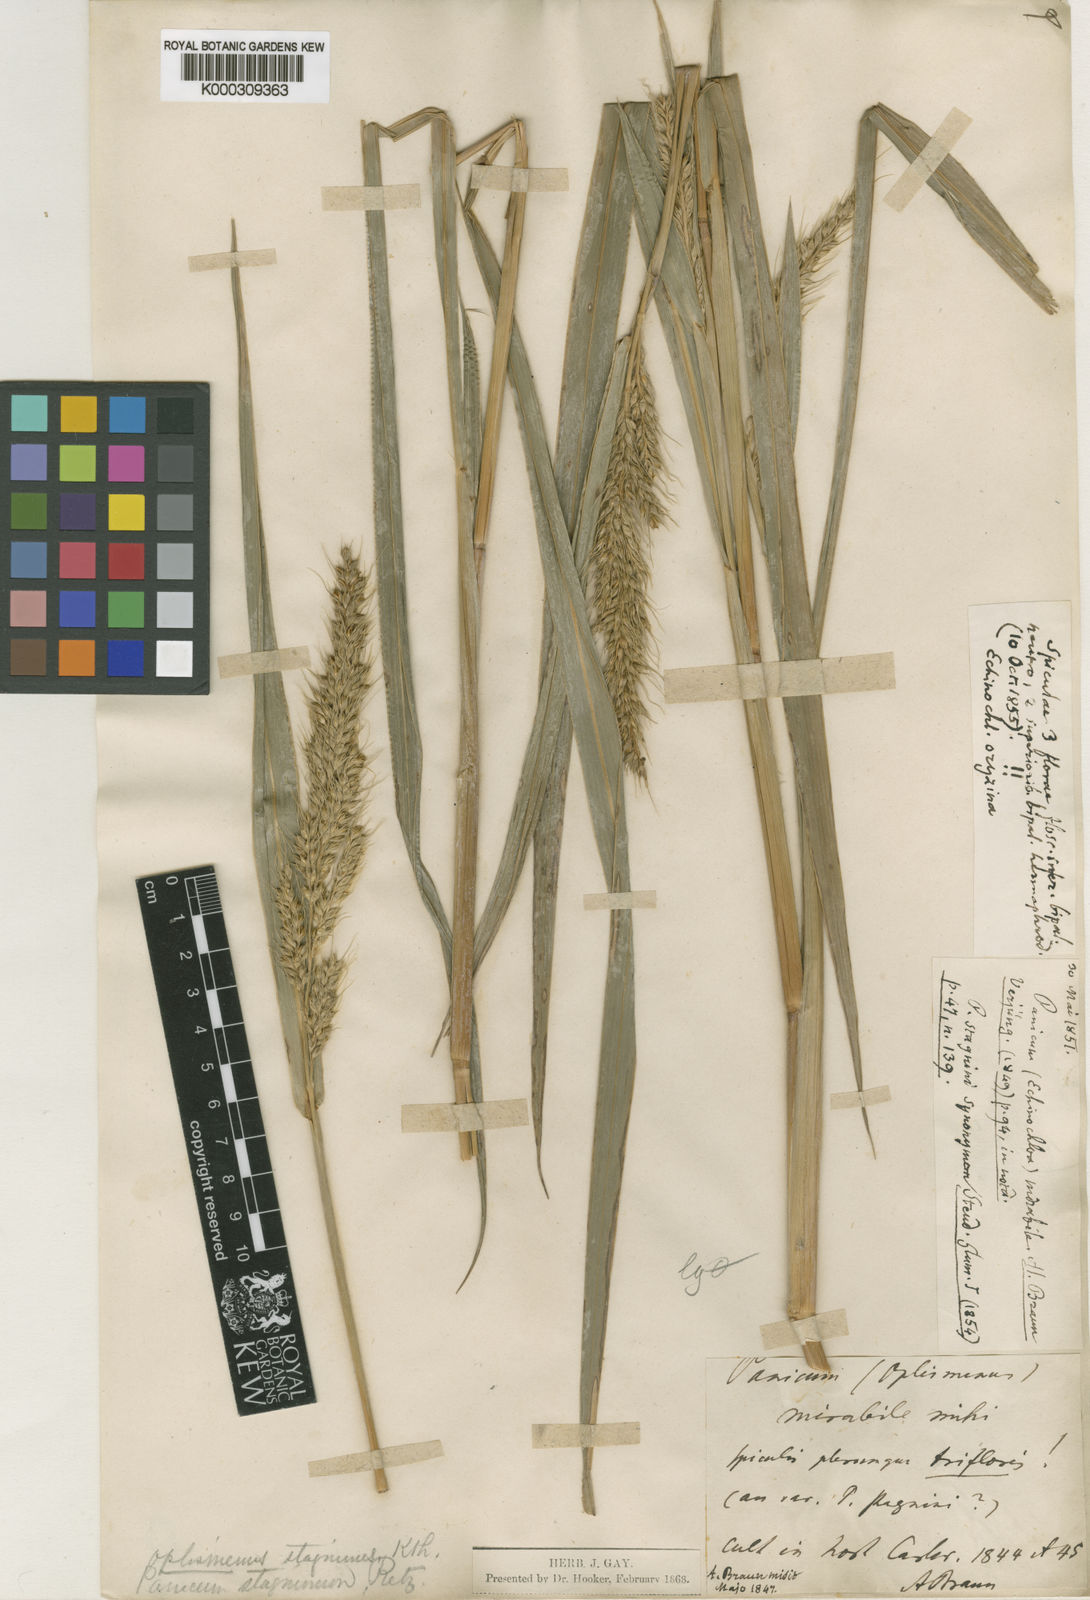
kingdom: Plantae
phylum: Tracheophyta
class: Liliopsida
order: Poales
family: Poaceae
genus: Echinochloa
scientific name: Echinochloa oryzoides
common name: Early water grass
